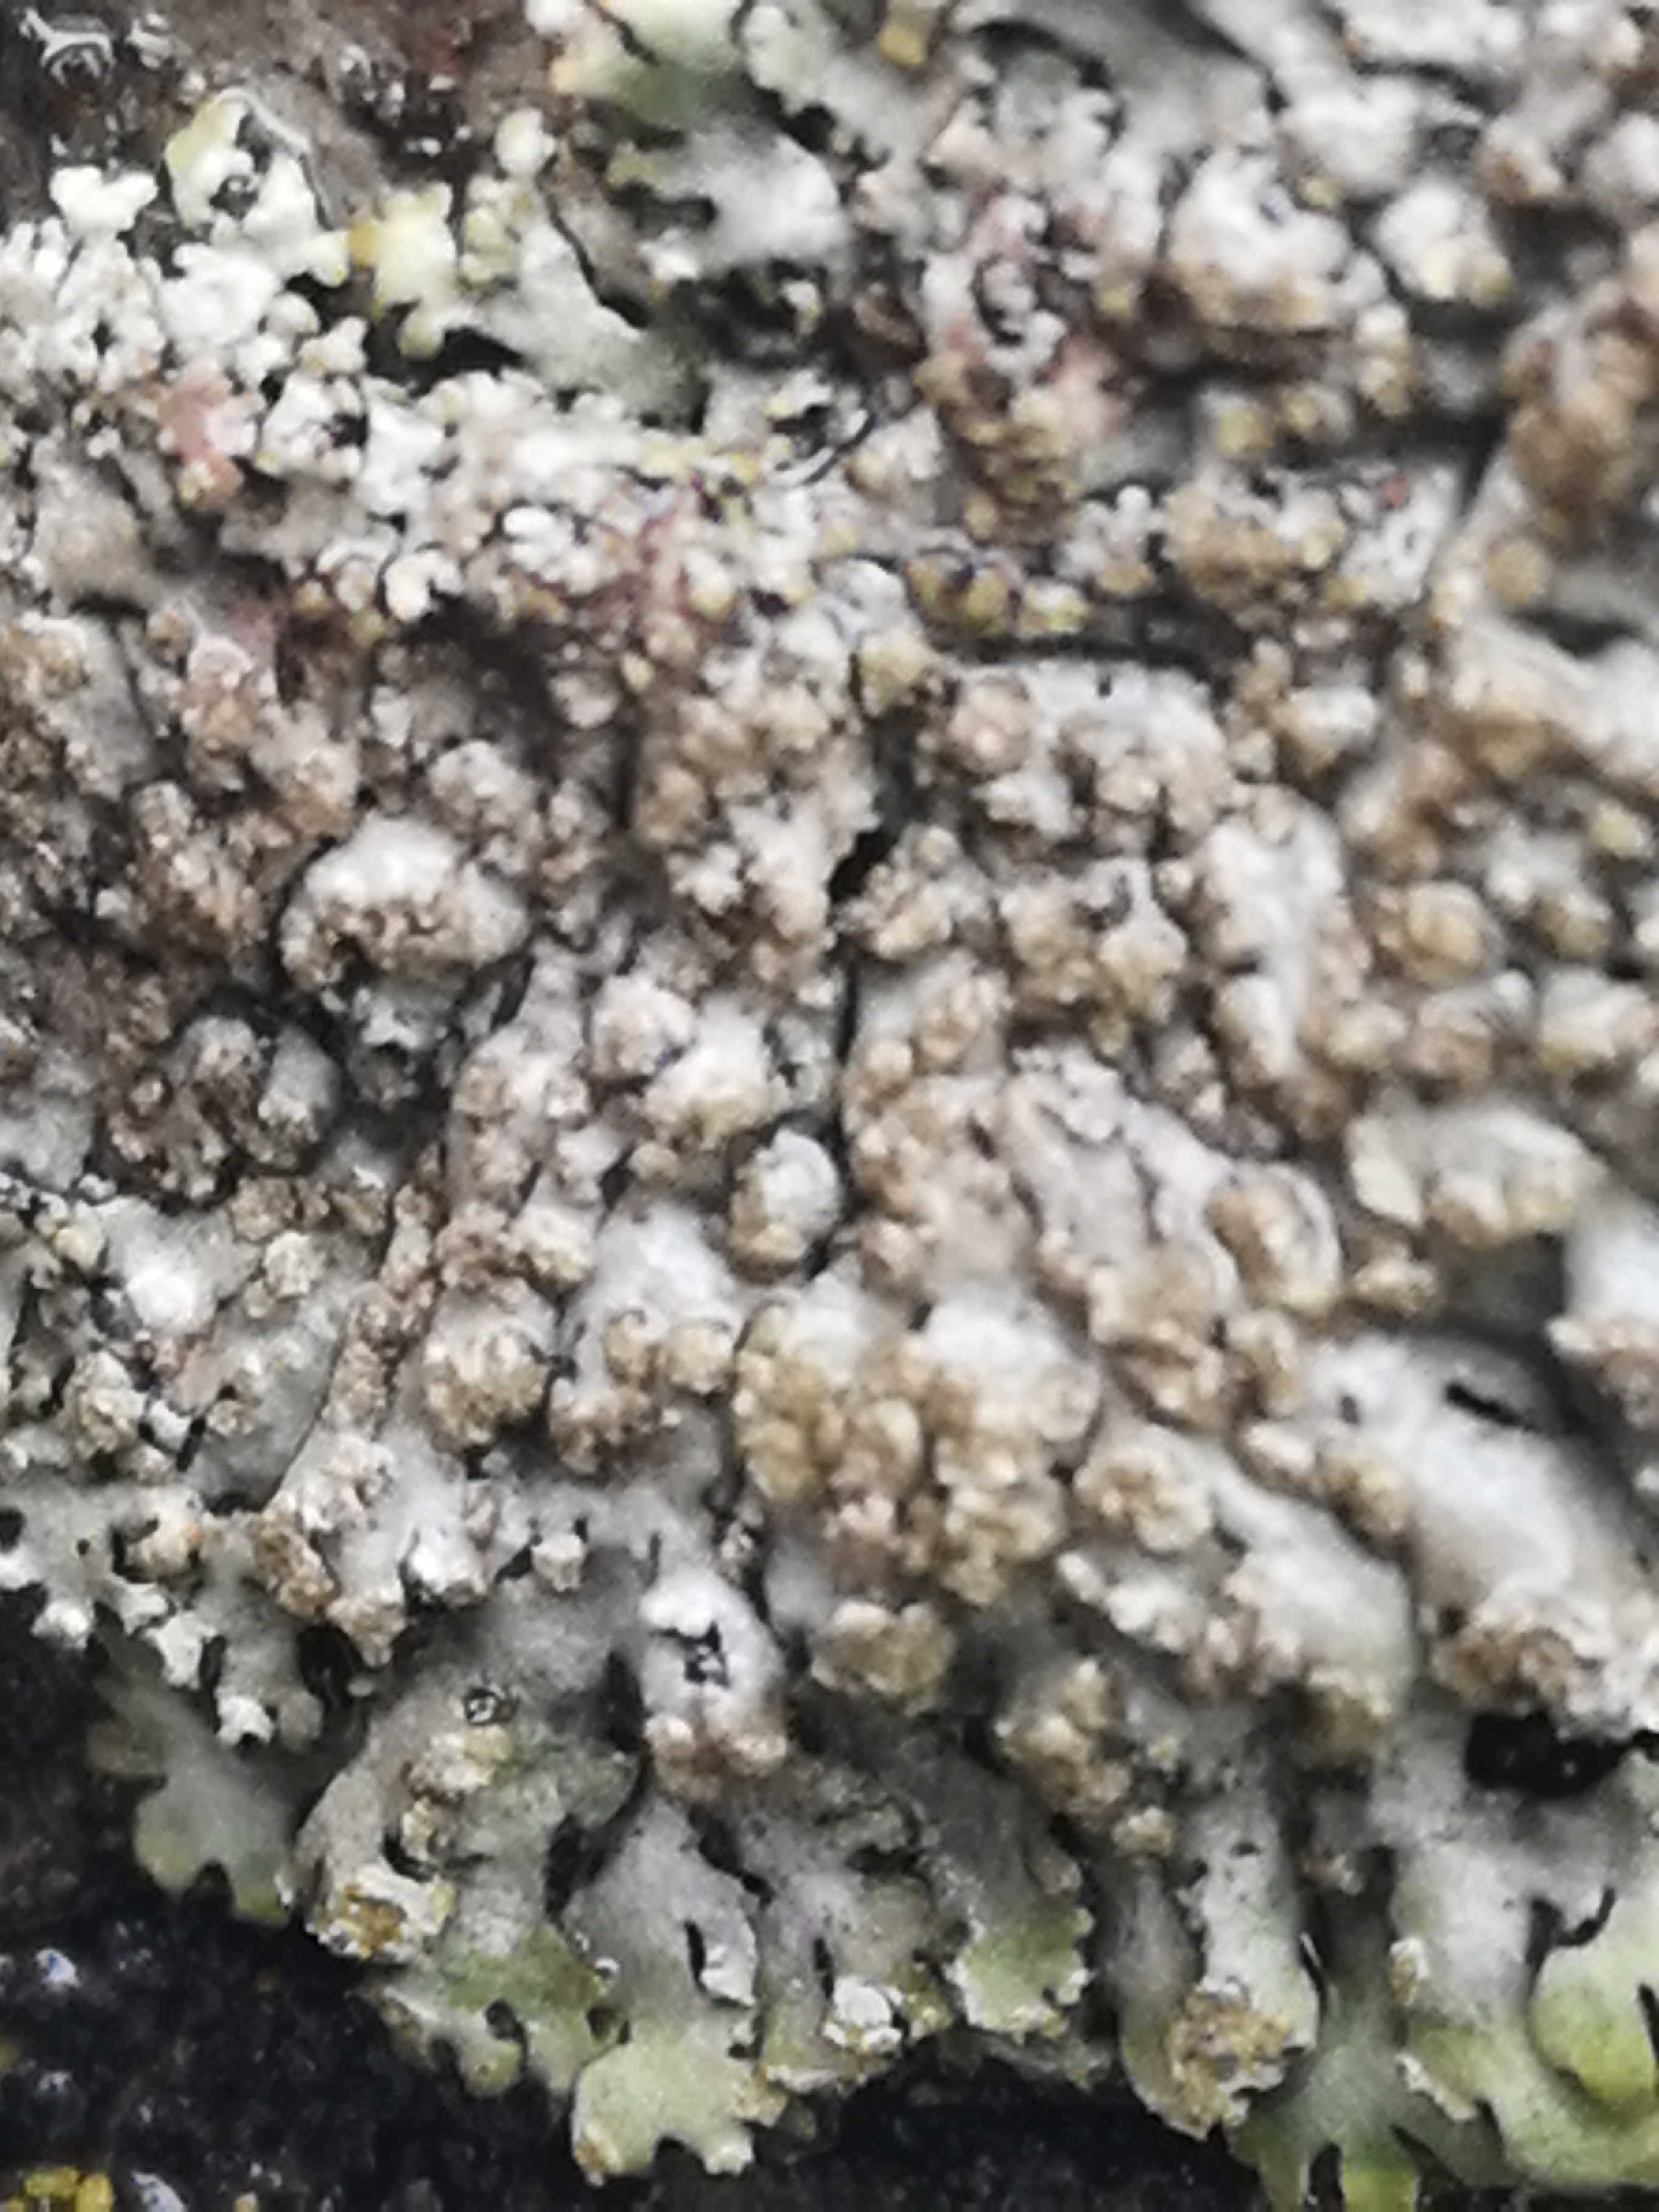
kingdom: Fungi
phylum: Ascomycota
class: Lecanoromycetes
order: Caliciales
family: Physciaceae
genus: Phaeophyscia
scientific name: Phaeophyscia orbicularis
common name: grågrøn rosetlav
